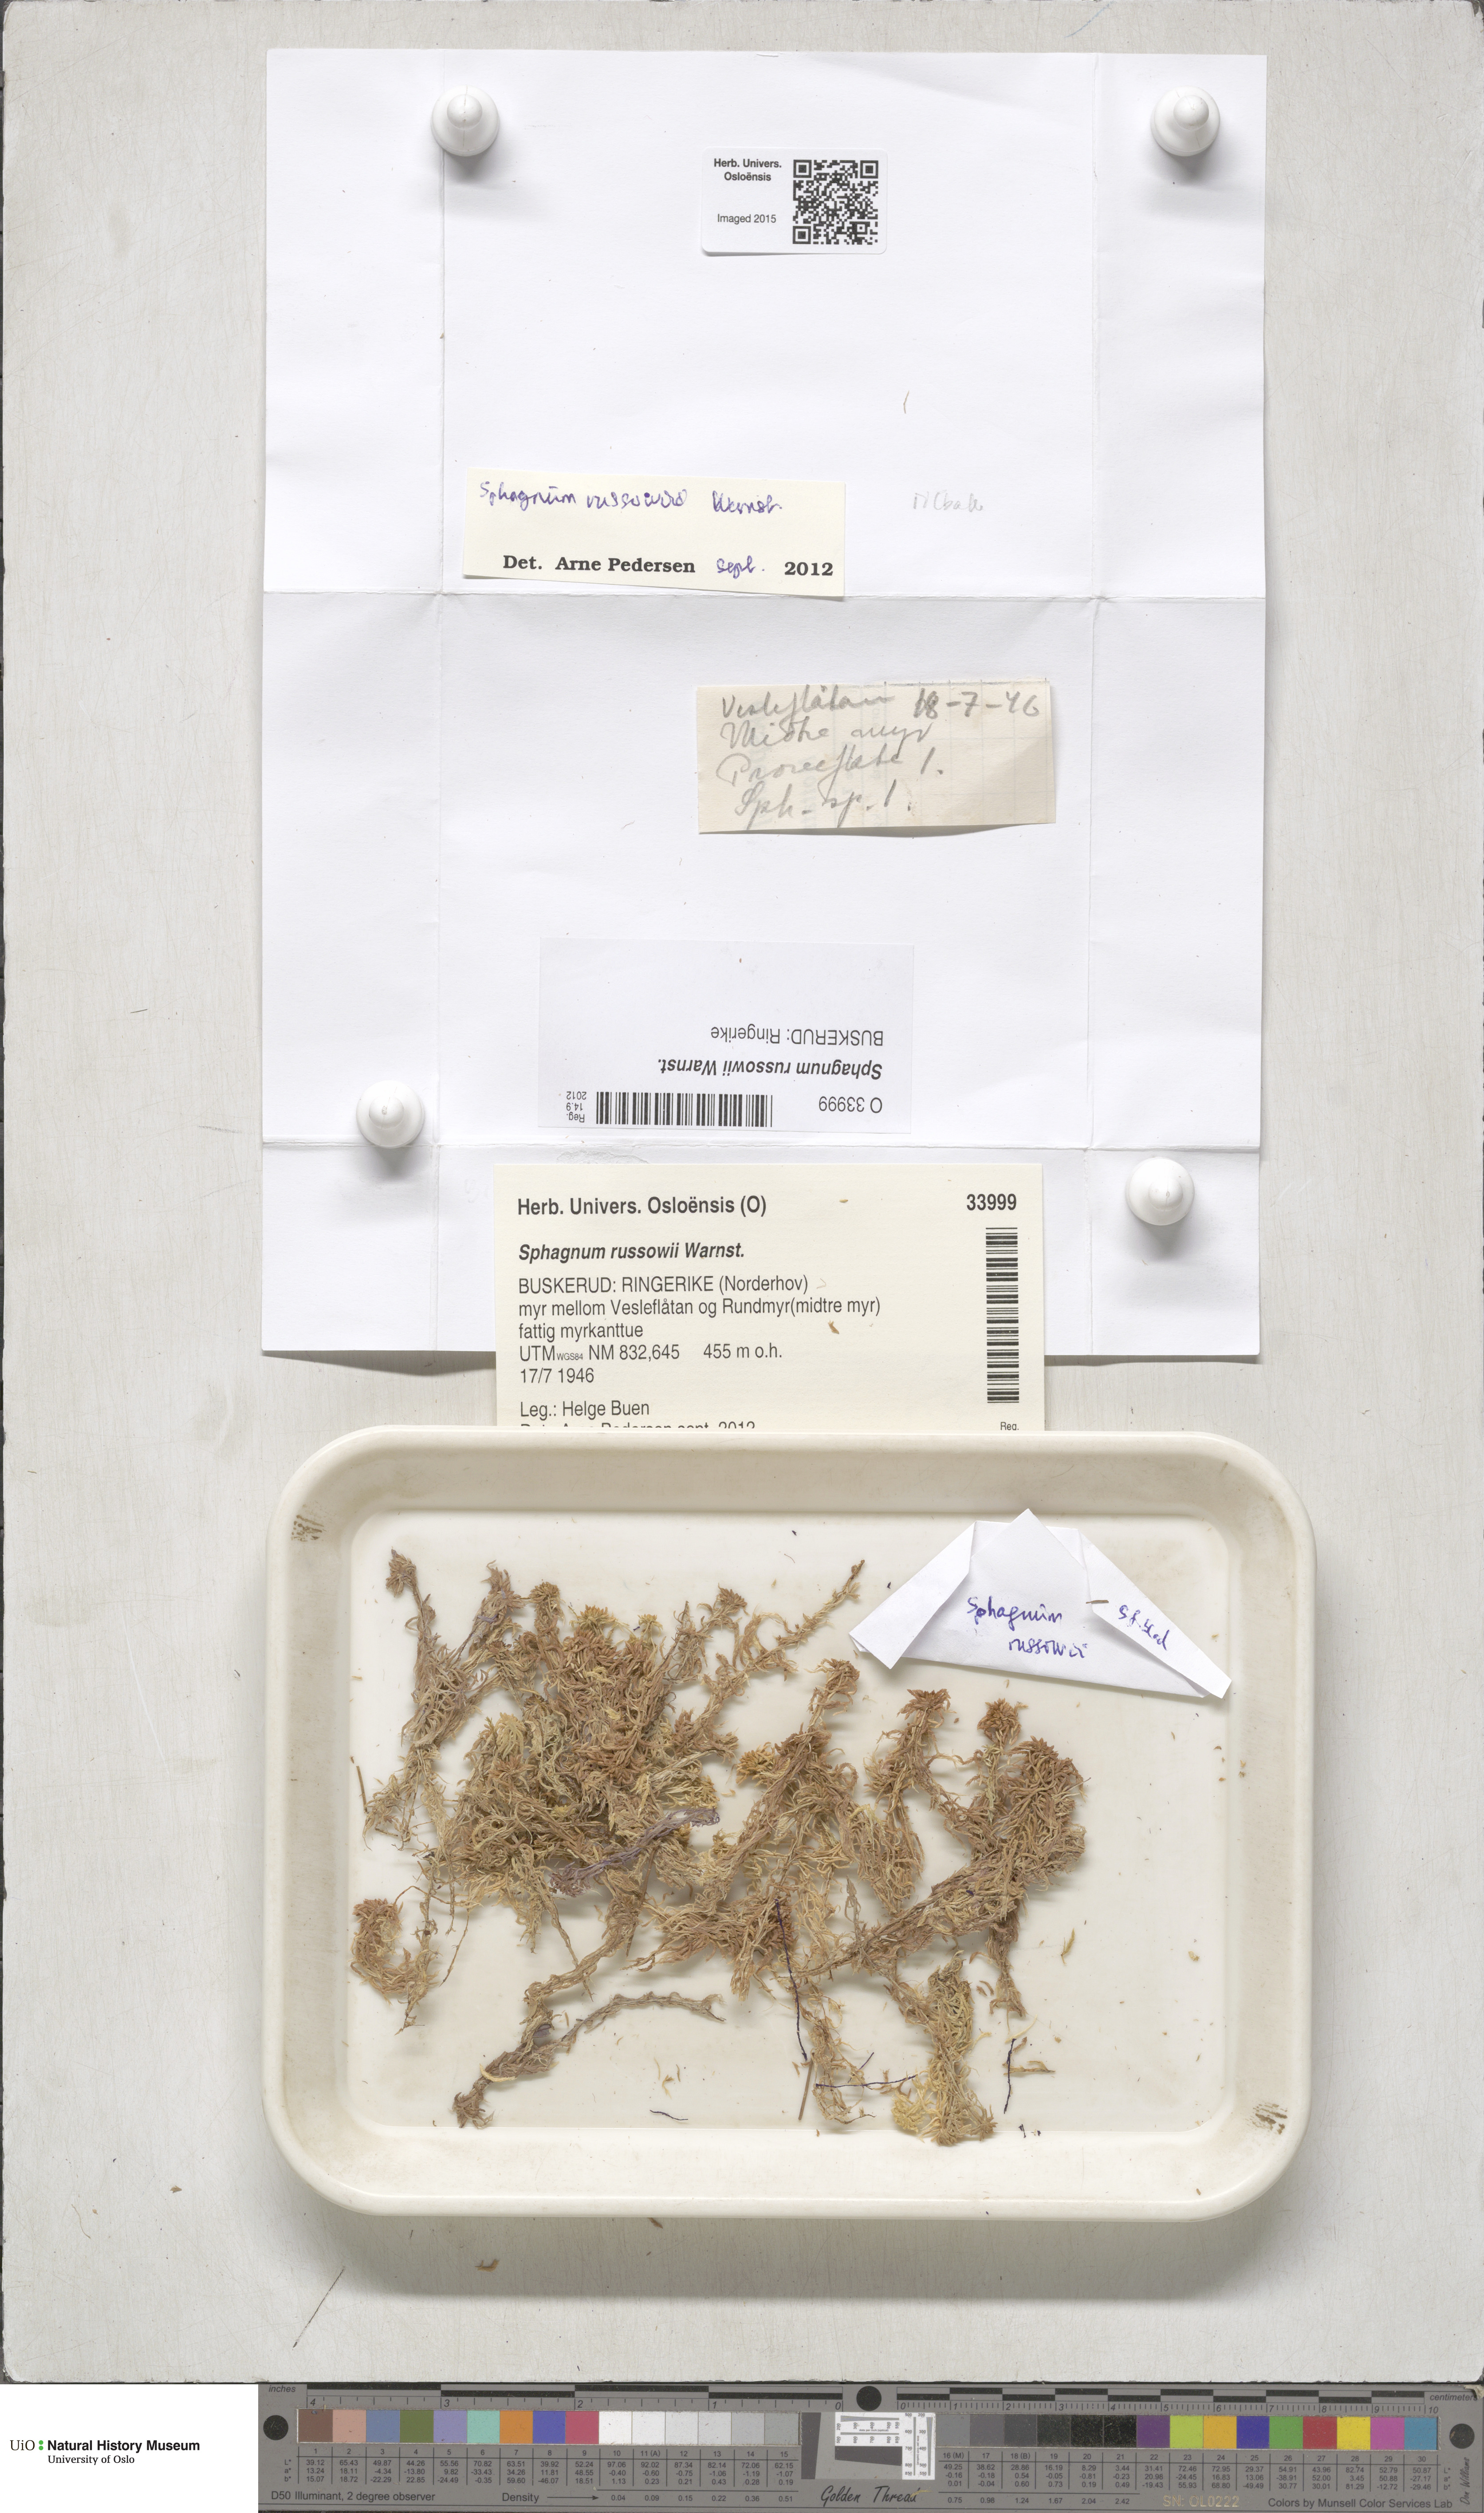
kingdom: Plantae
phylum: Bryophyta
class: Sphagnopsida
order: Sphagnales
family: Sphagnaceae
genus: Sphagnum
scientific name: Sphagnum russowii
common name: Russow's peat moss
